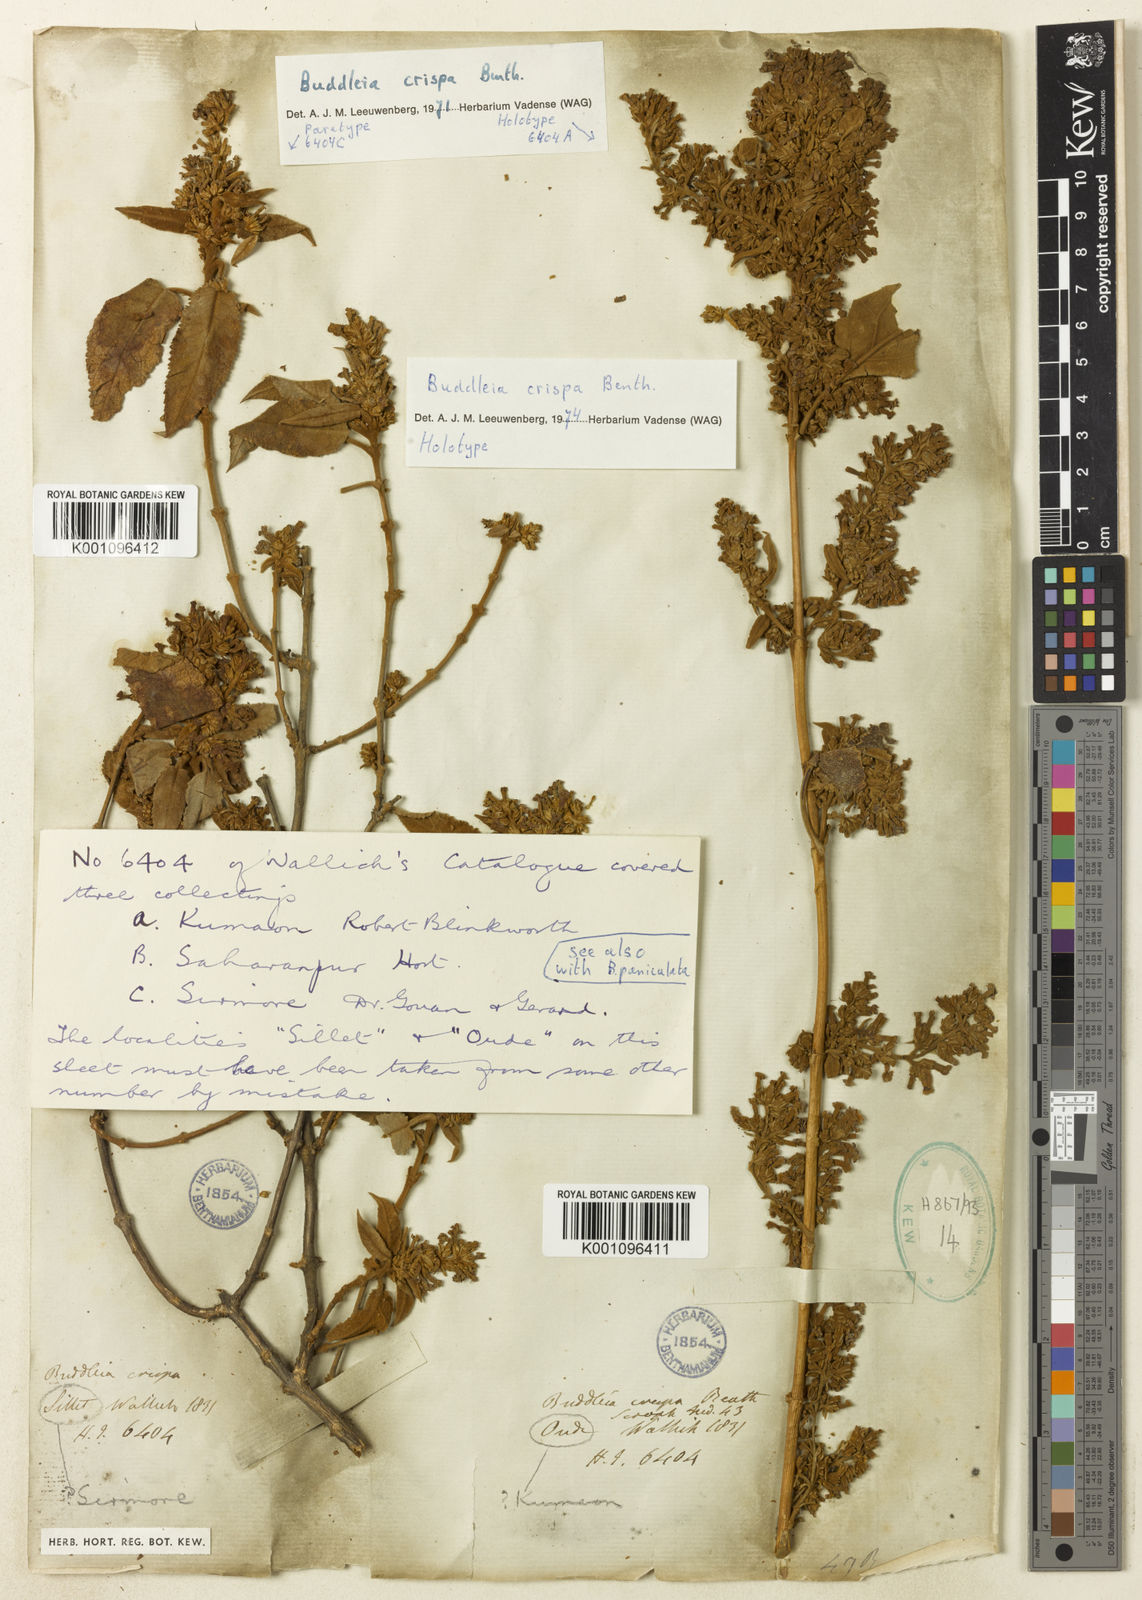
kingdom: Plantae
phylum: Tracheophyta
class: Magnoliopsida
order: Lamiales
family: Scrophulariaceae
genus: Buddleja
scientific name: Buddleja crispa
